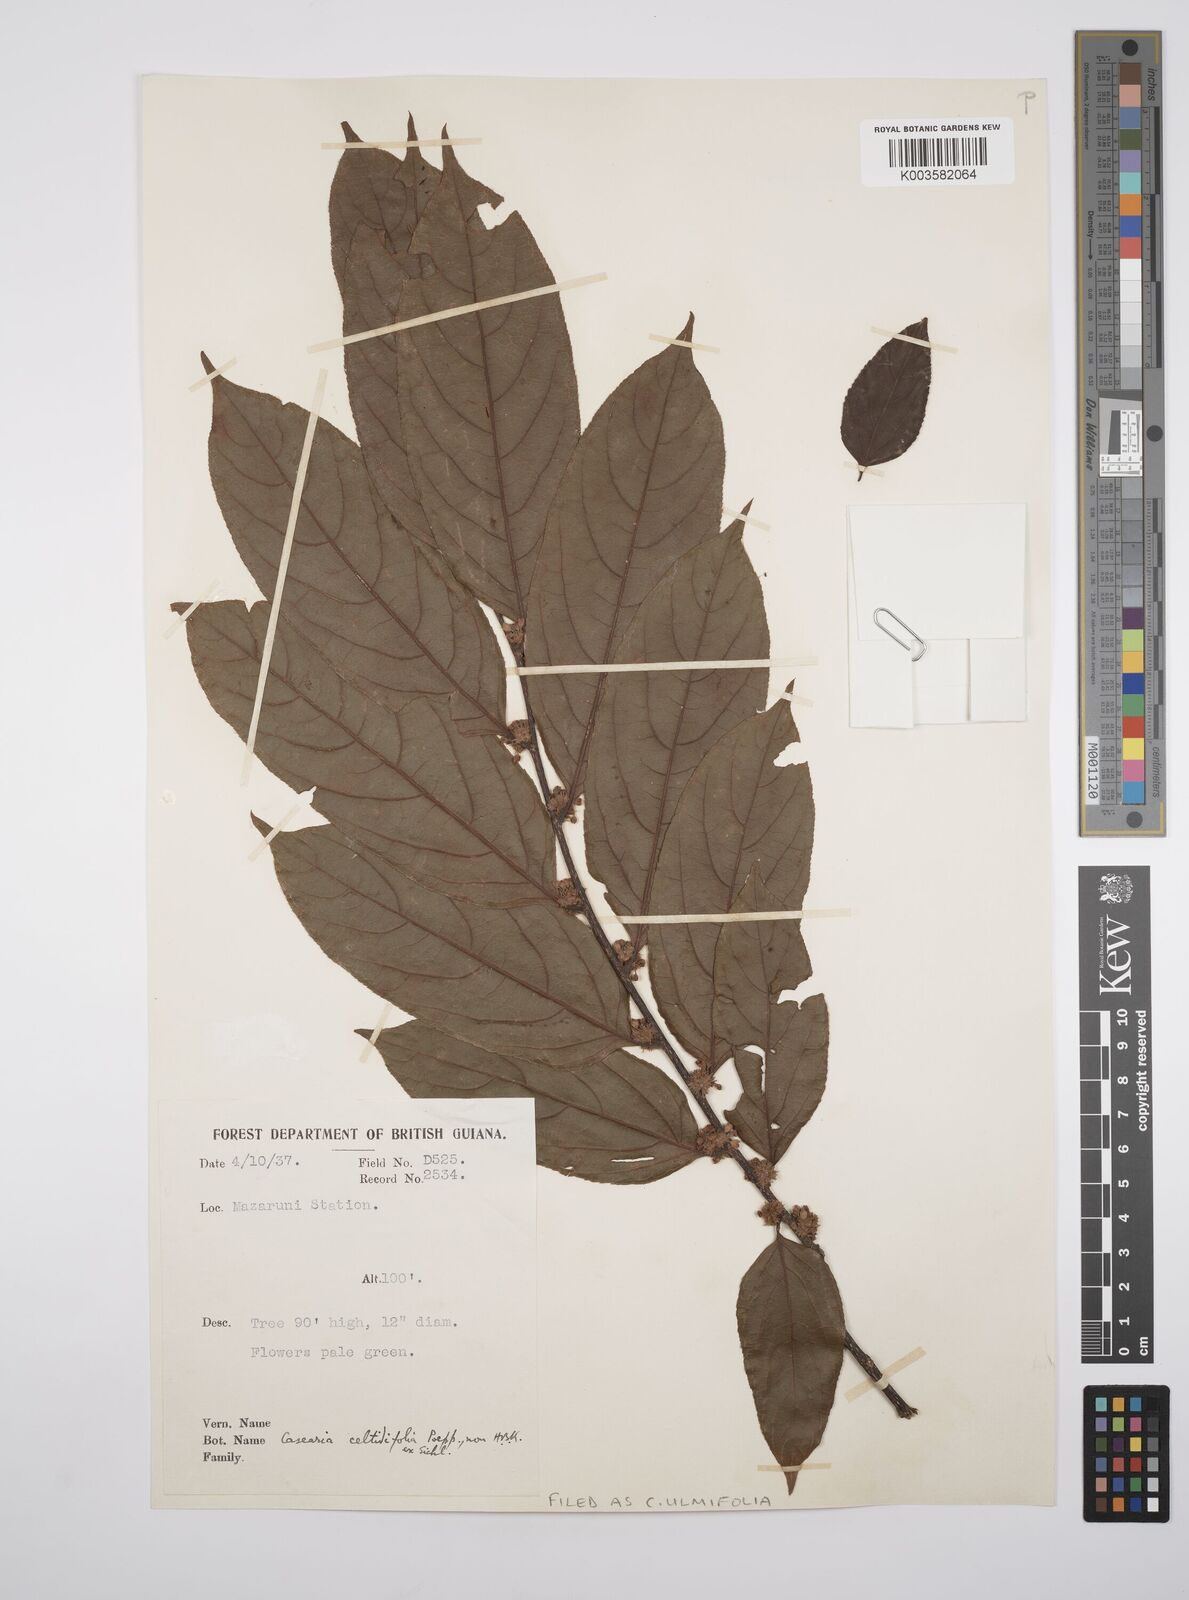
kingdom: Plantae
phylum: Tracheophyta
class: Magnoliopsida
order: Malpighiales
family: Salicaceae
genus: Casearia
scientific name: Casearia ulmifolia
